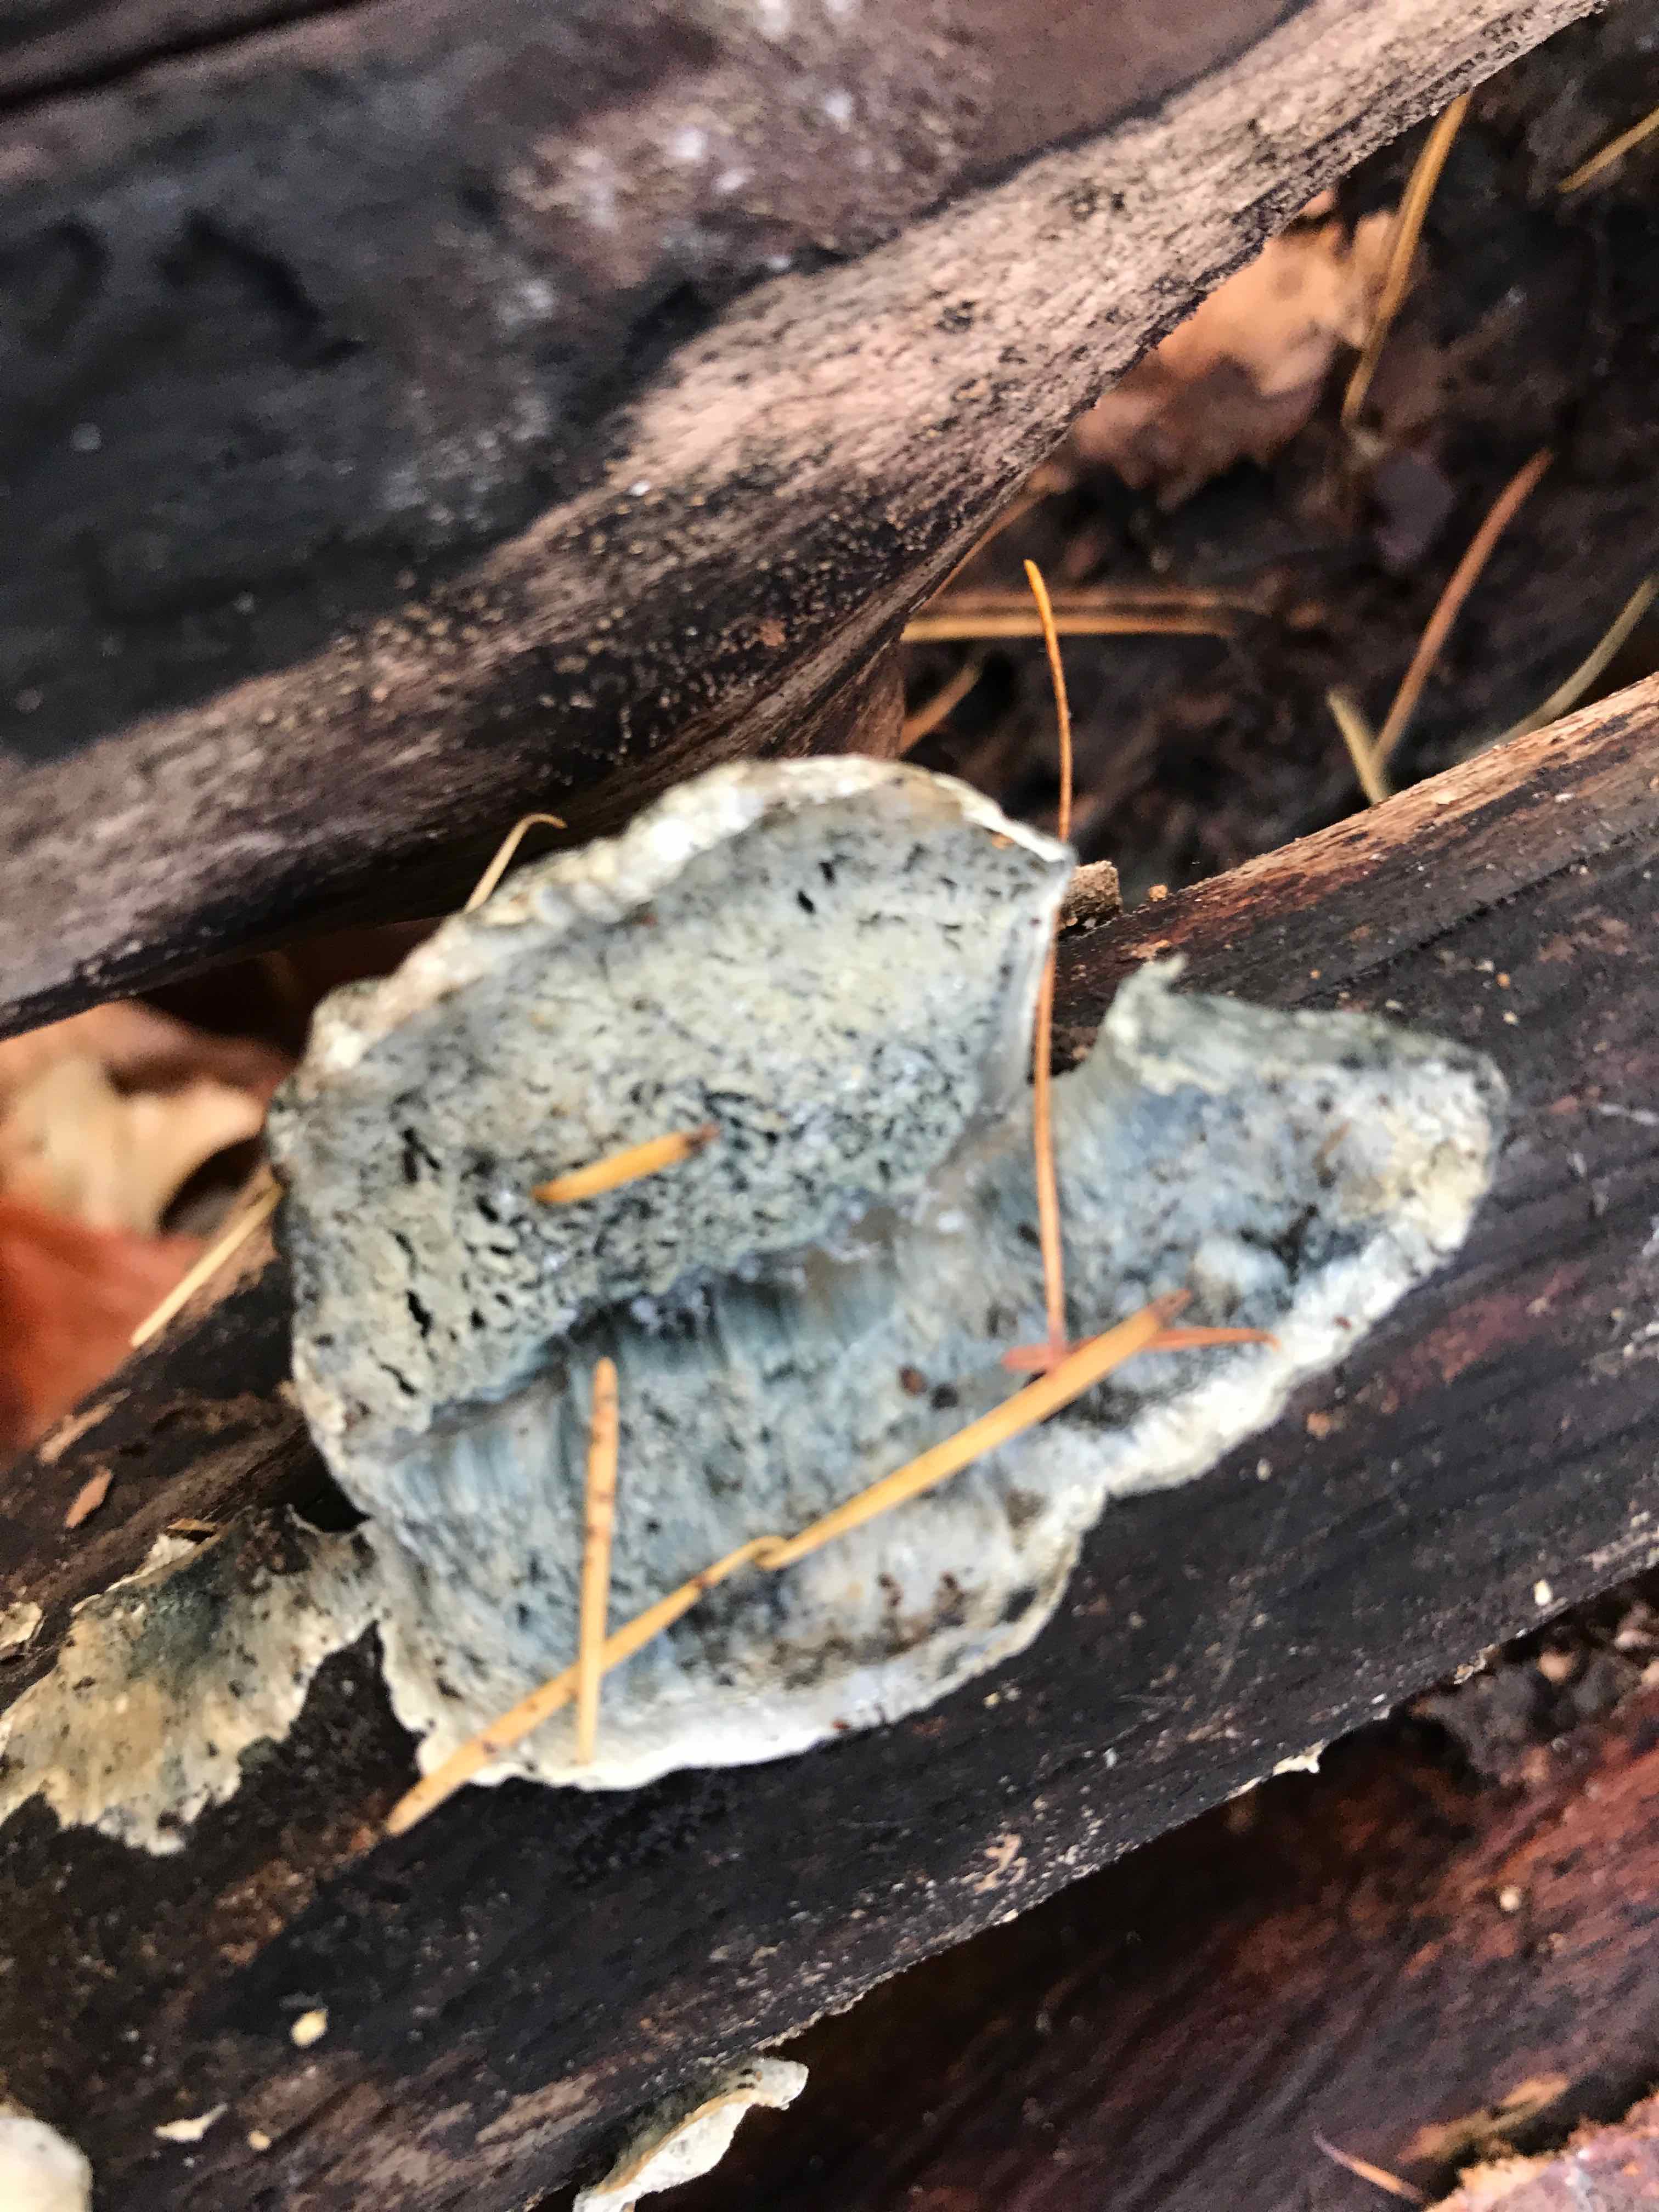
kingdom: Fungi
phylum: Basidiomycota
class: Agaricomycetes
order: Polyporales
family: Polyporaceae
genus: Cyanosporus
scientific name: Cyanosporus caesius
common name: blålig kødporesvamp
